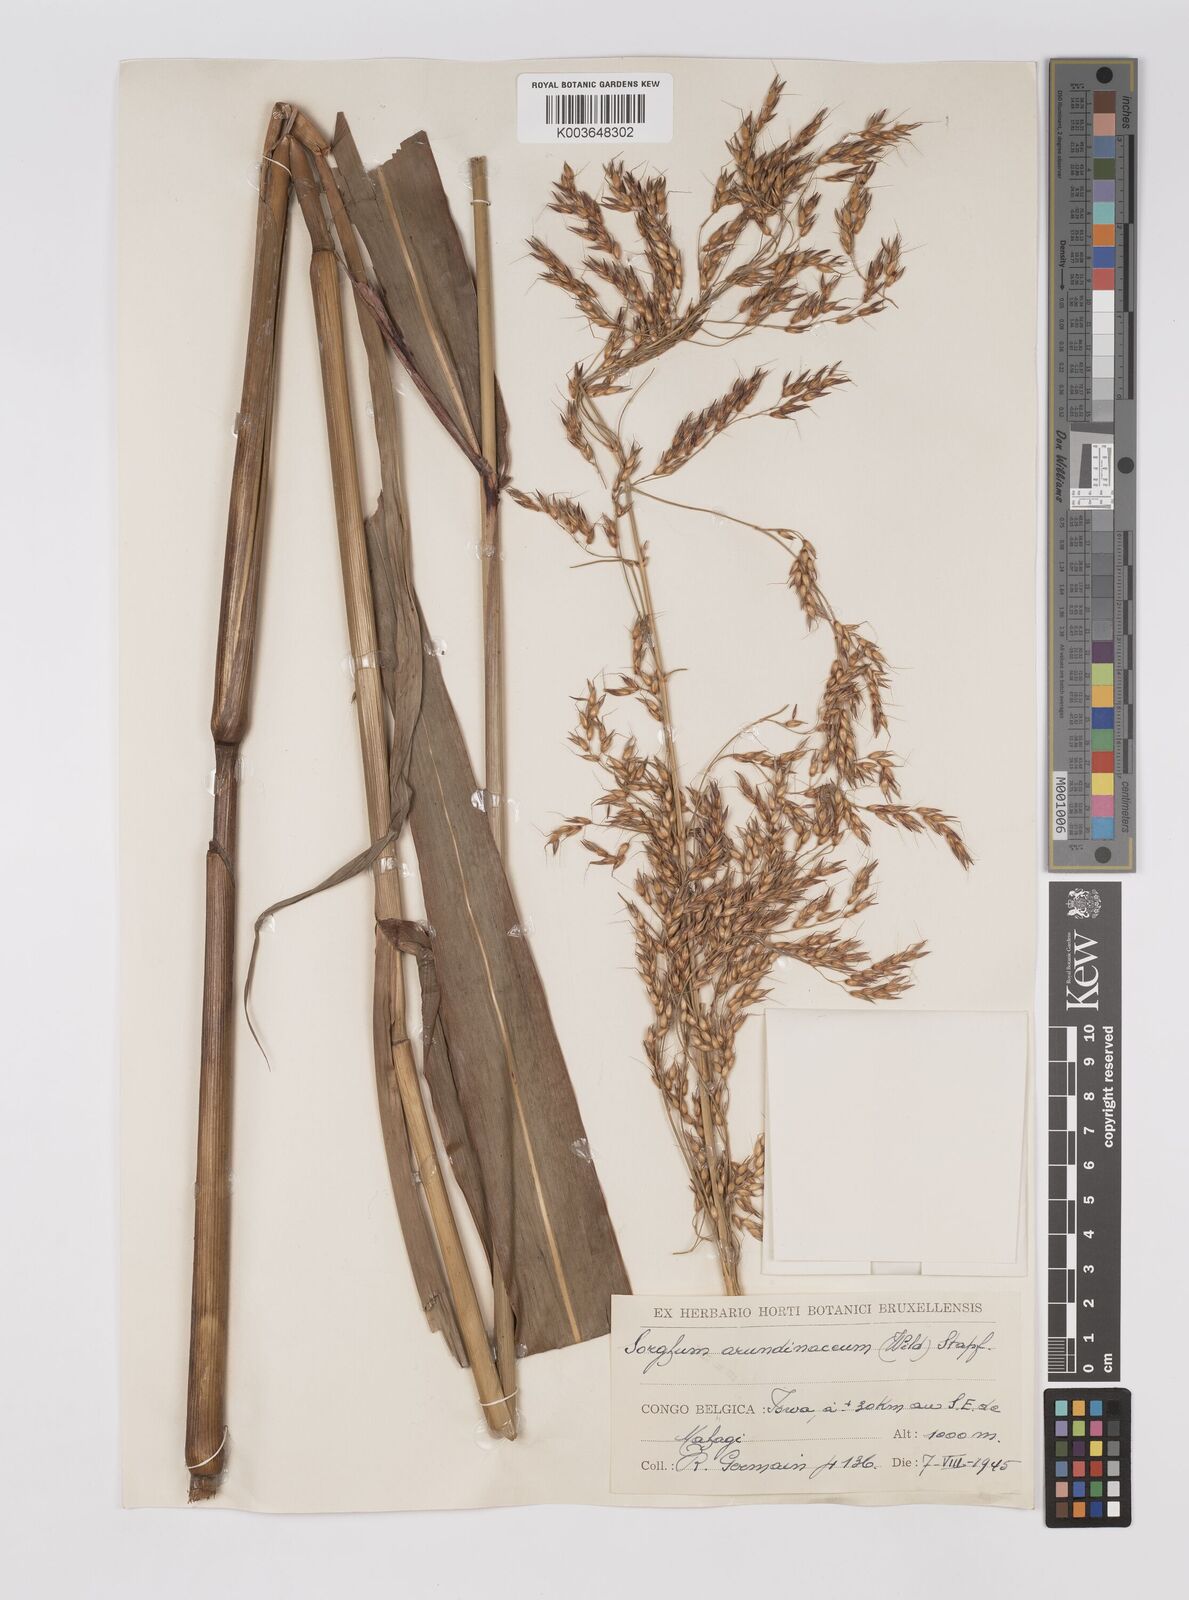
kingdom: Plantae
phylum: Tracheophyta
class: Liliopsida
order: Poales
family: Poaceae
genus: Sorghum
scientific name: Sorghum arundinaceum
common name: Sorghum
